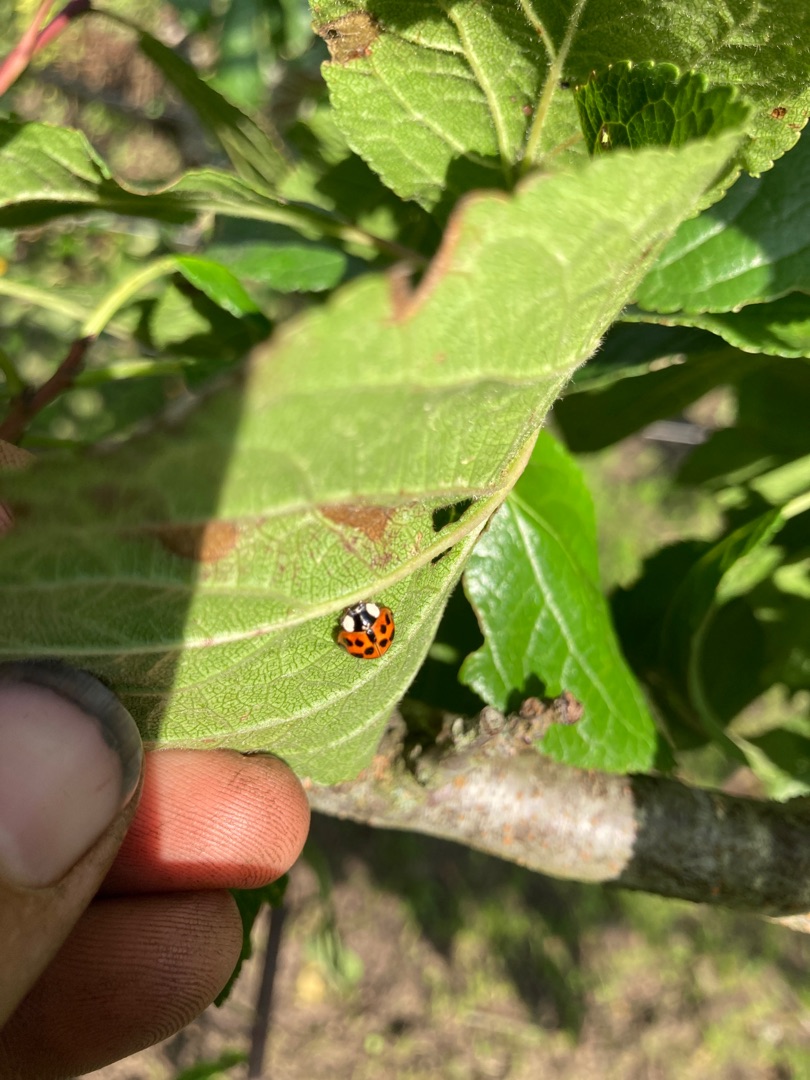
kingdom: Animalia
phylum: Arthropoda
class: Insecta
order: Coleoptera
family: Coccinellidae
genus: Harmonia
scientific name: Harmonia axyridis
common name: Harlekinmariehøne
